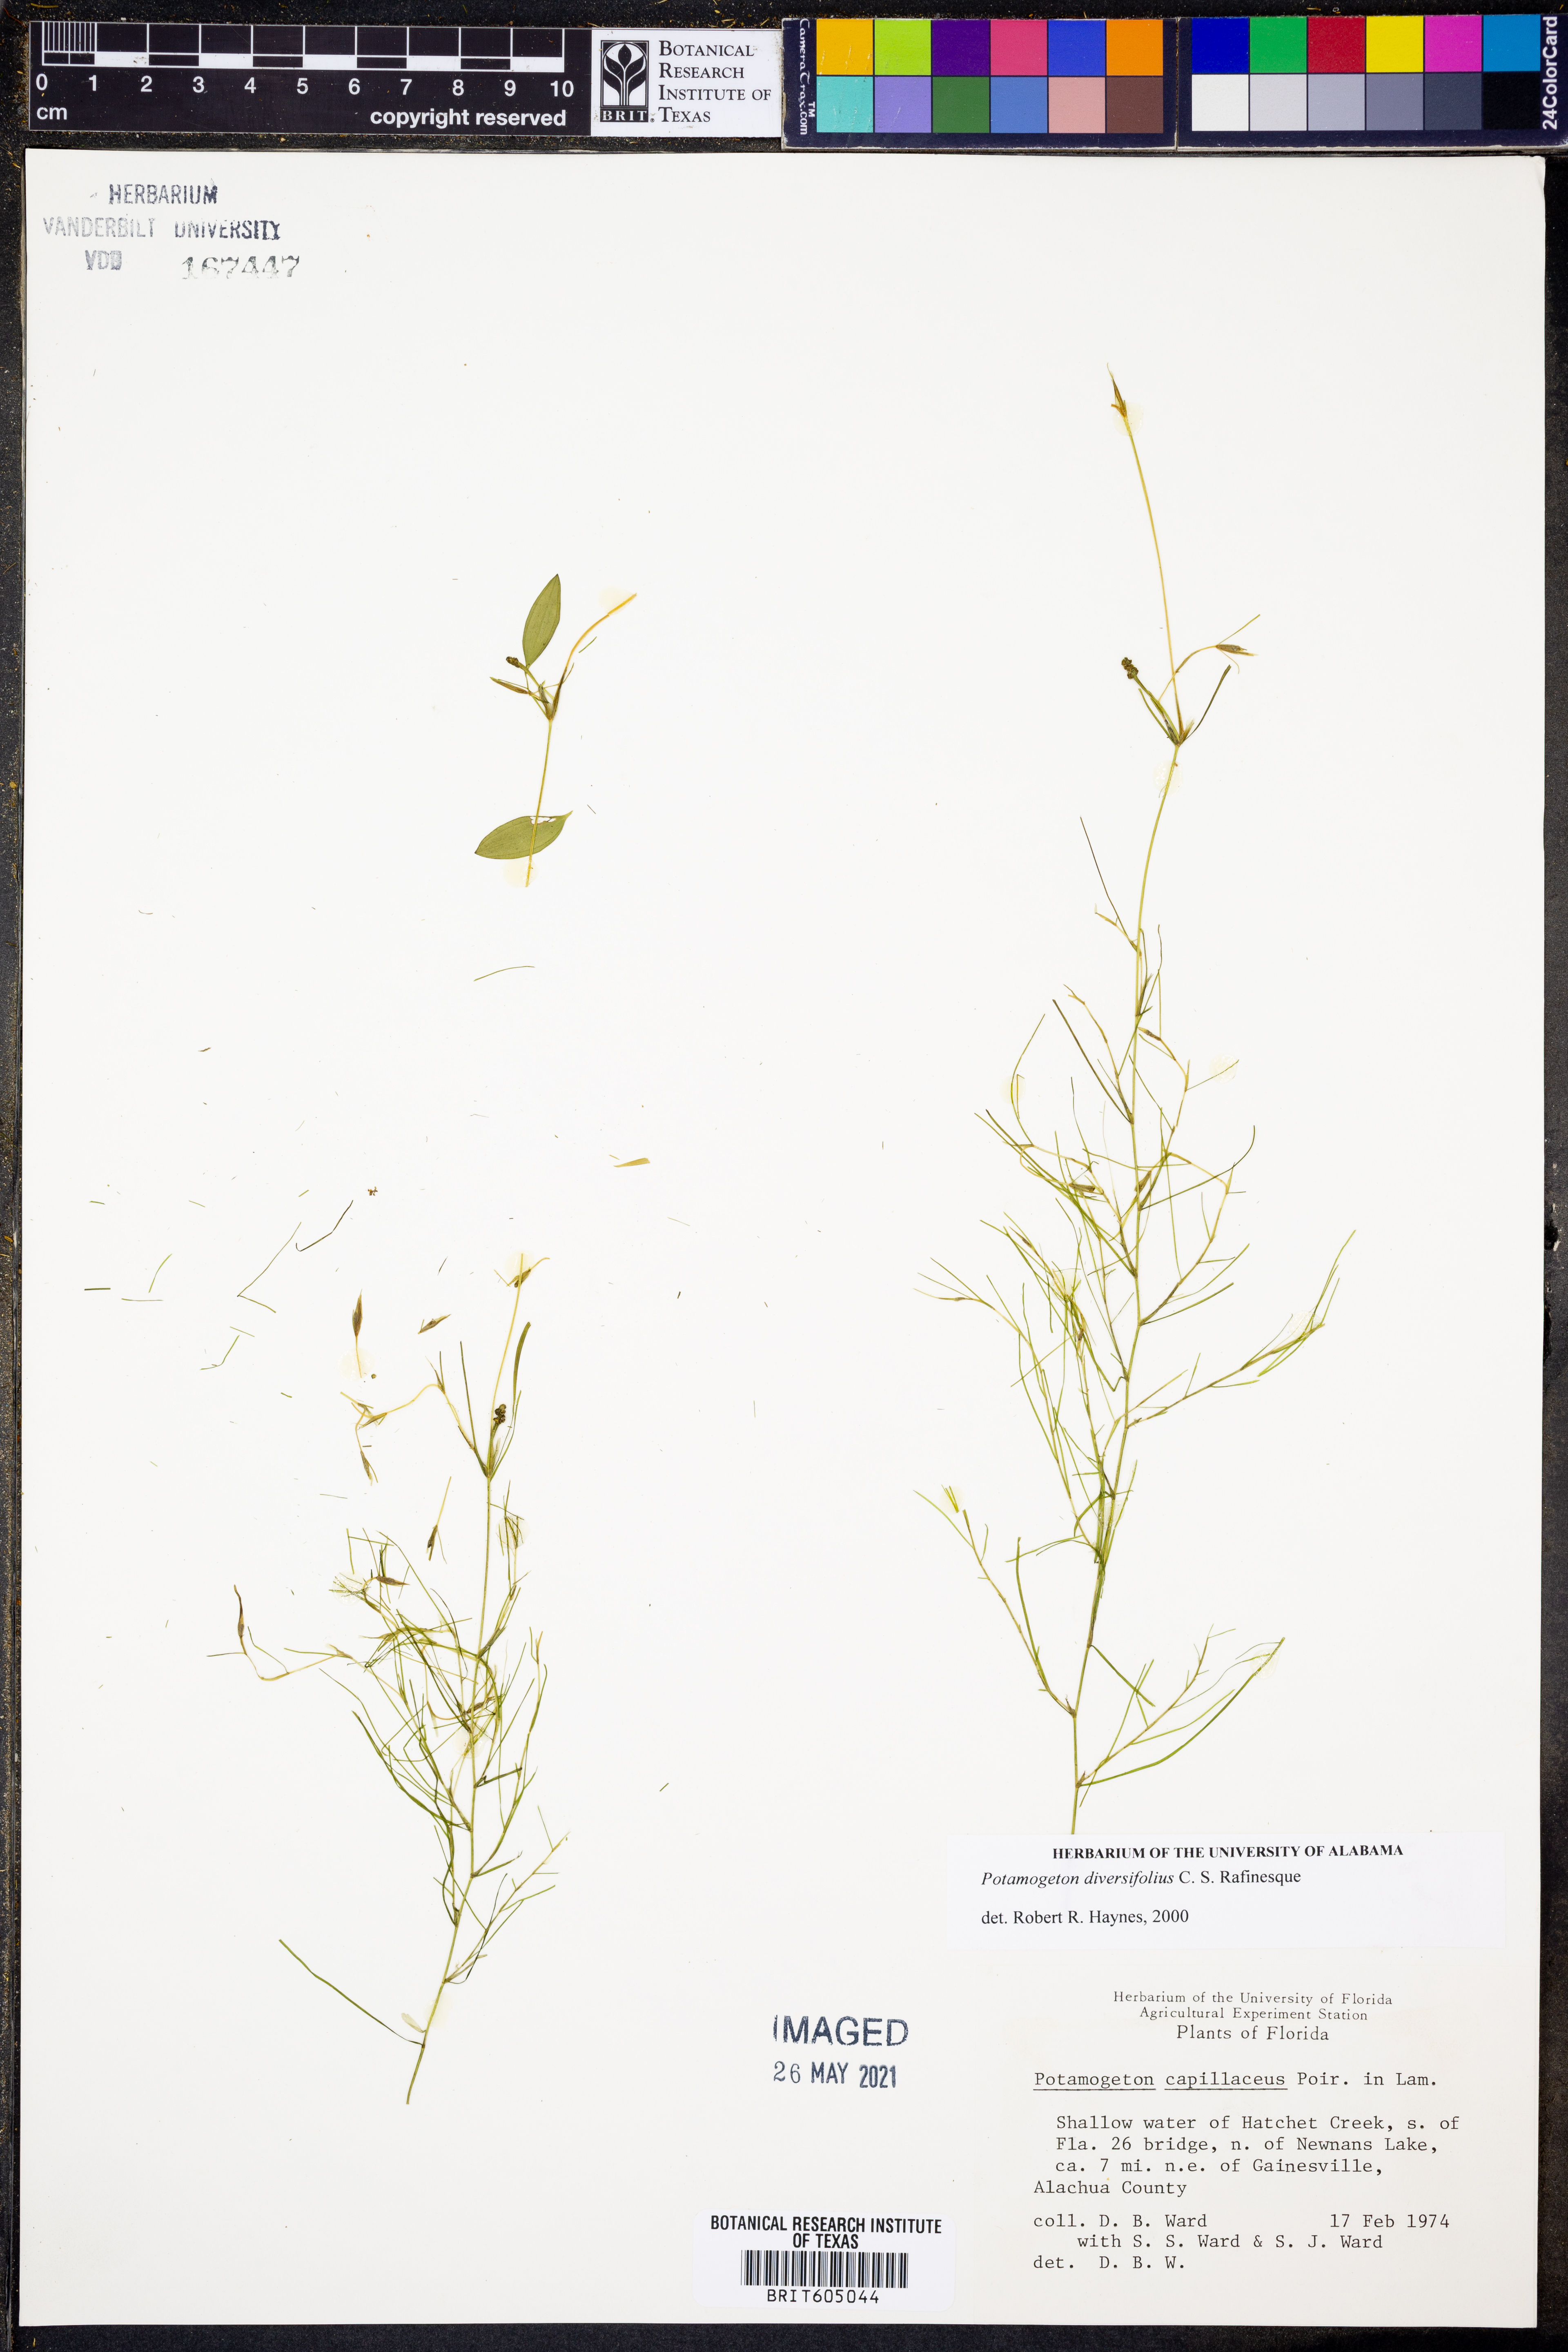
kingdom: Plantae
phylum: Tracheophyta
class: Liliopsida
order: Alismatales
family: Potamogetonaceae
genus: Potamogeton
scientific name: Potamogeton diversifolius
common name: Water-thread pondweed
